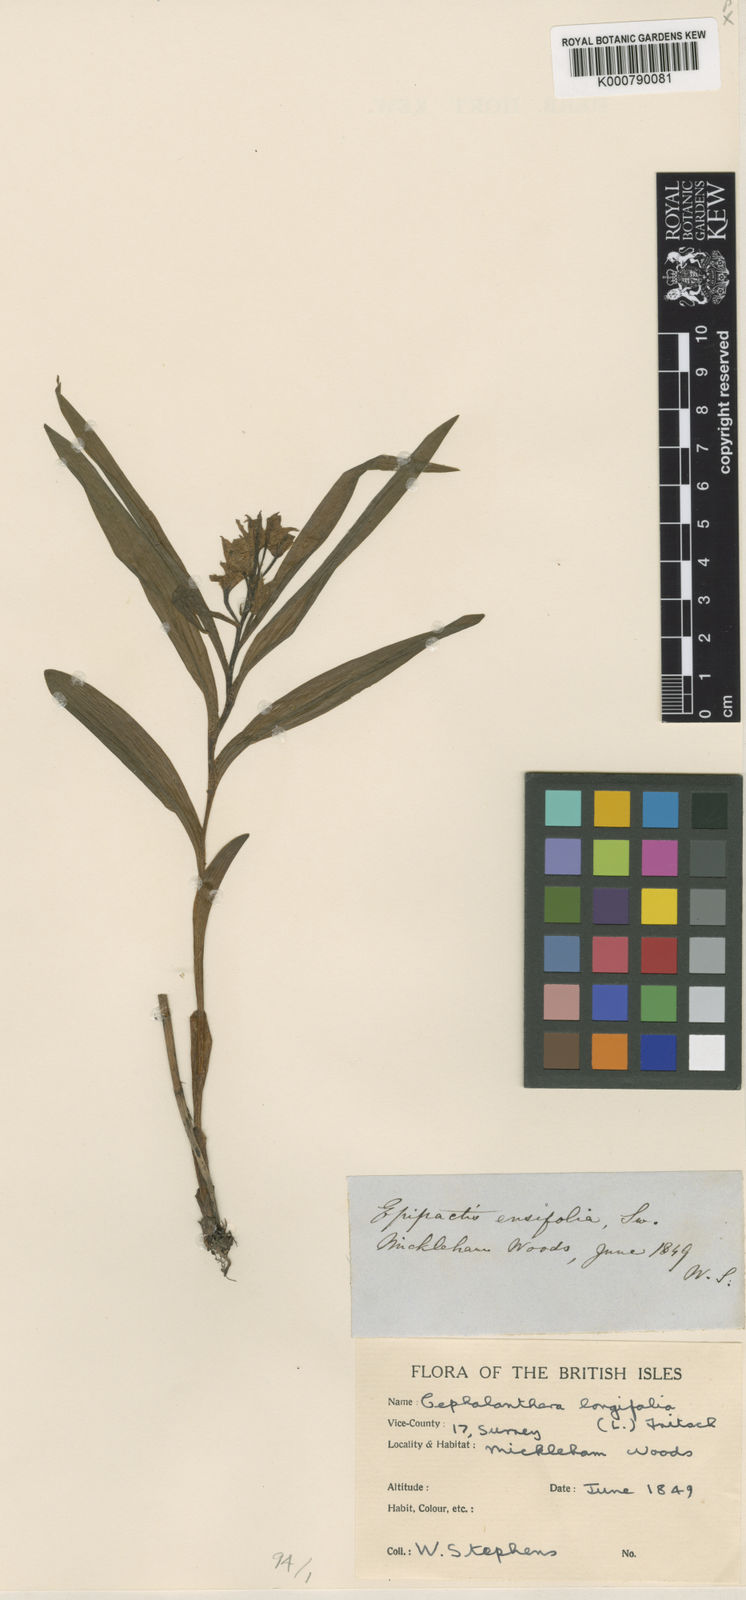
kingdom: Plantae
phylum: Tracheophyta
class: Liliopsida
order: Asparagales
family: Orchidaceae
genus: Cephalanthera
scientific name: Cephalanthera longifolia
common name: Narrow-leaved helleborine
